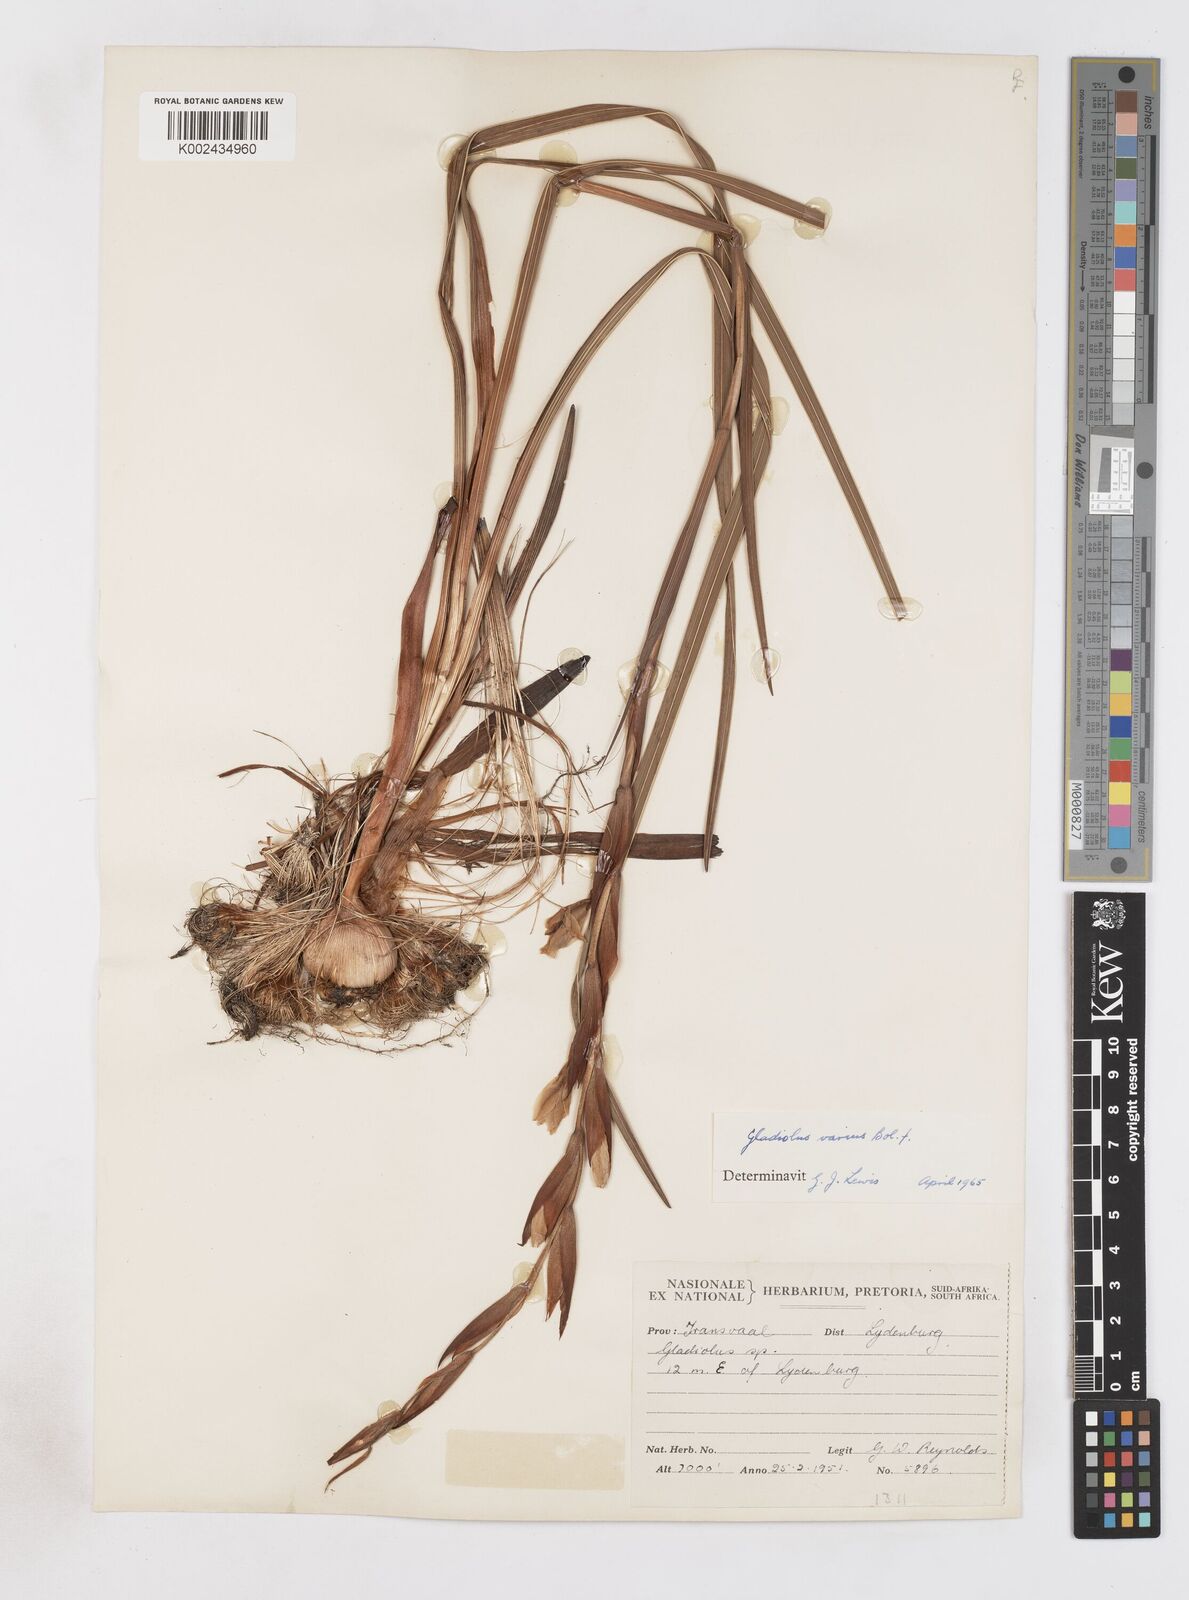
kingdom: Plantae
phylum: Tracheophyta
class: Liliopsida
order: Asparagales
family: Iridaceae
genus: Gladiolus
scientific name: Gladiolus varius
